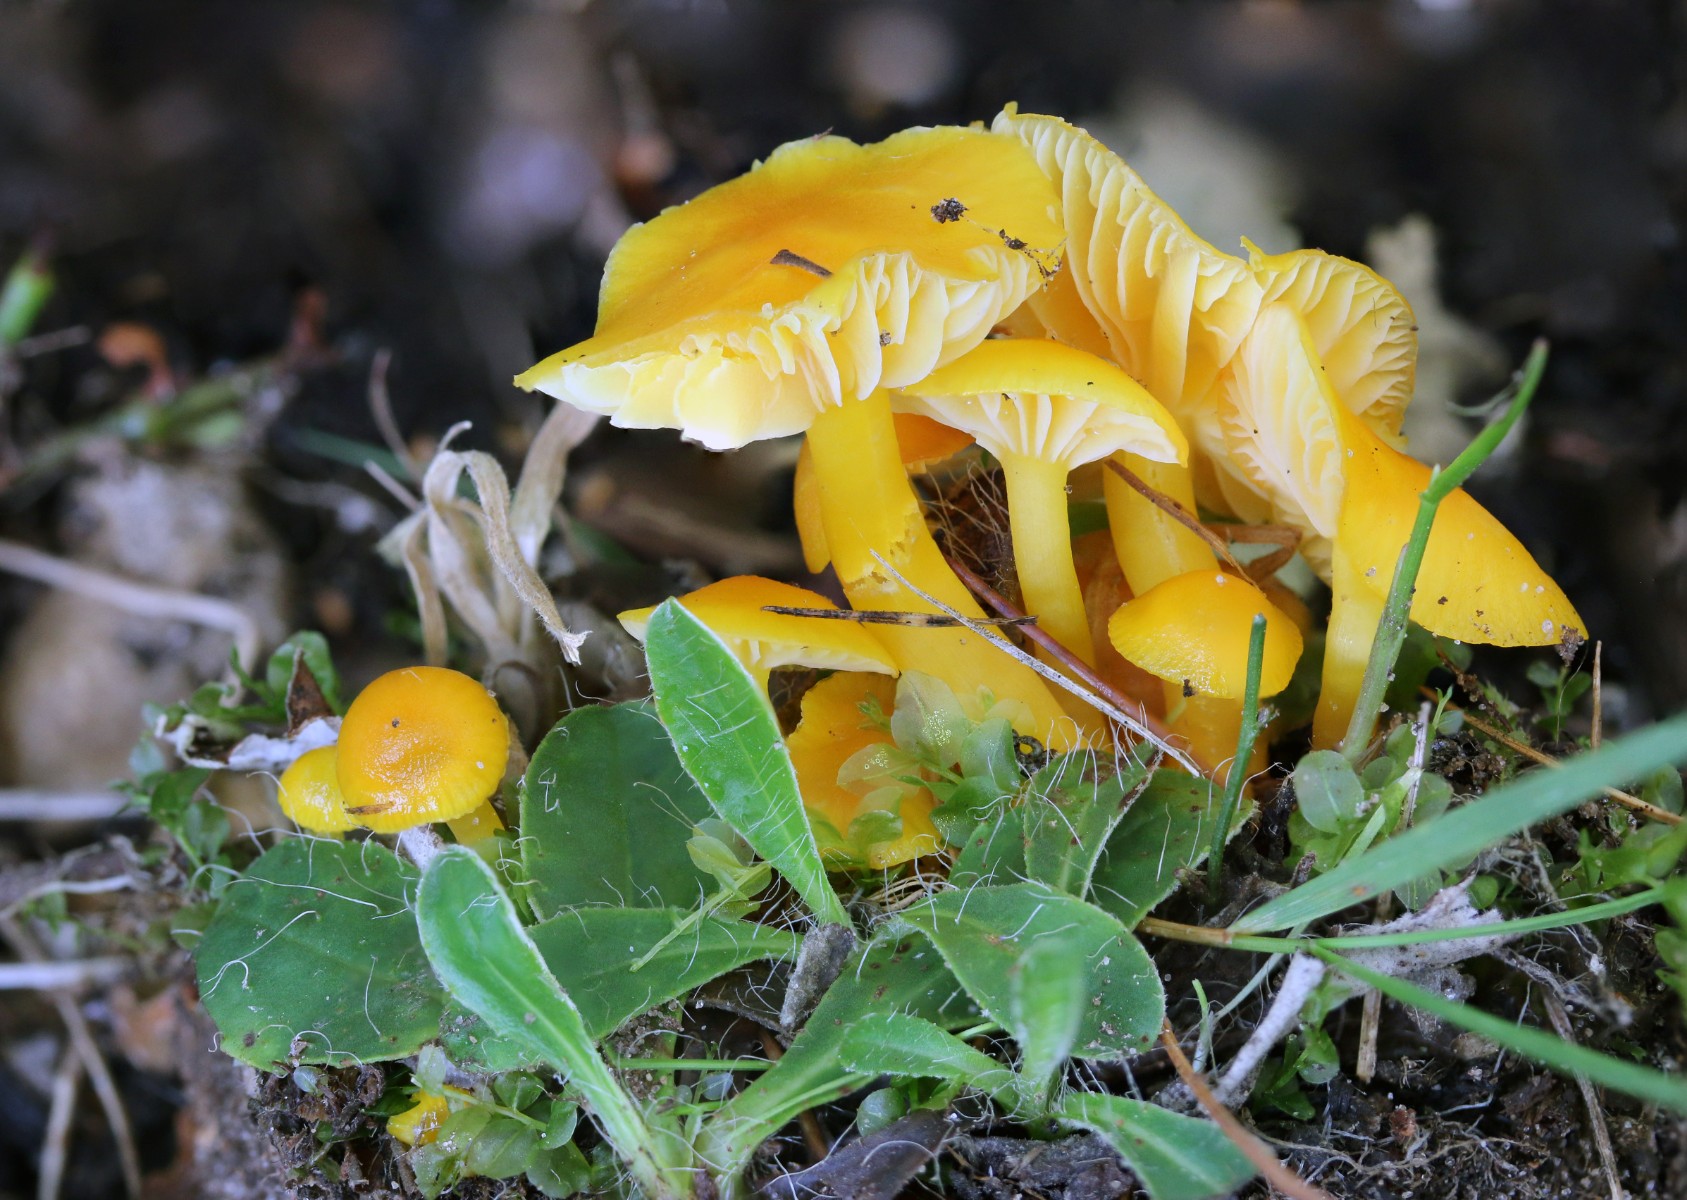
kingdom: Fungi
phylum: Basidiomycota
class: Agaricomycetes
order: Agaricales
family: Hygrophoraceae
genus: Hygrocybe
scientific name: Hygrocybe ceracea
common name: voksgul vokshat
